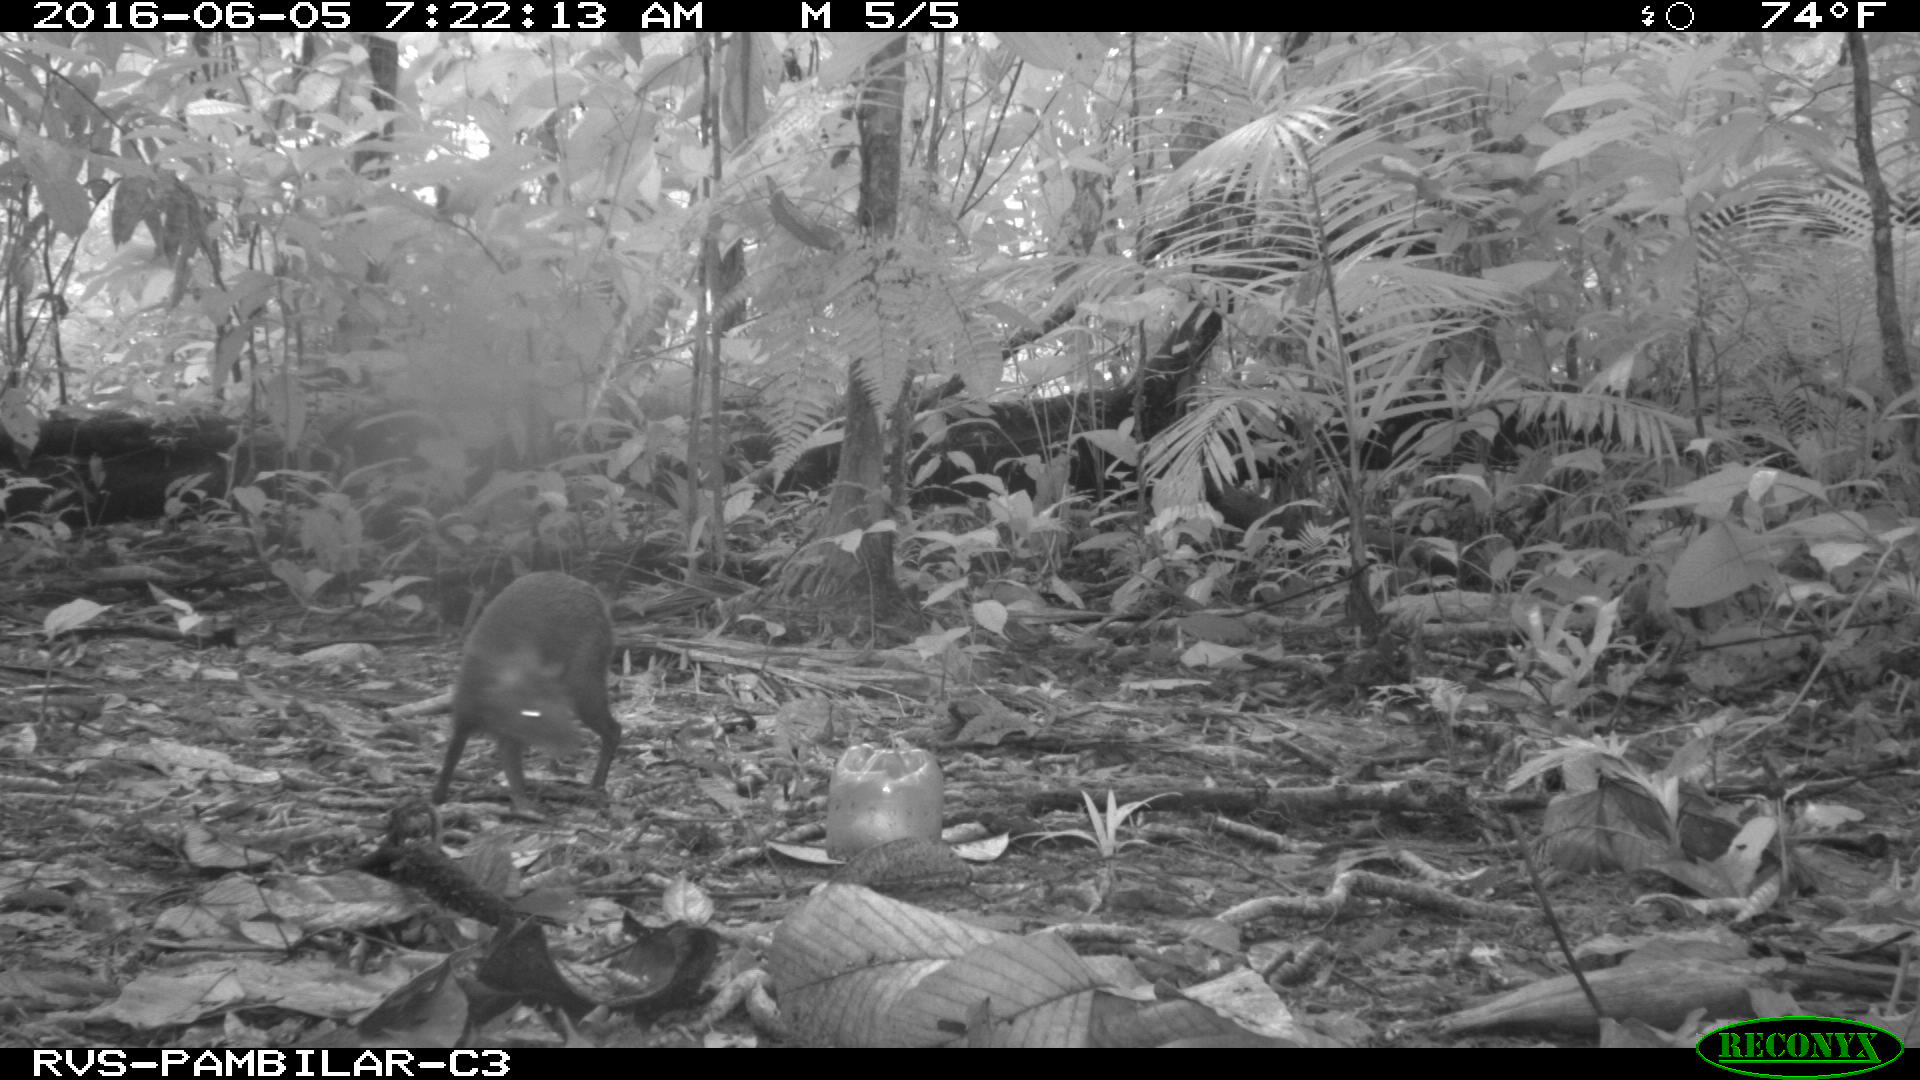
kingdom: Animalia
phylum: Chordata
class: Mammalia
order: Rodentia
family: Dasyproctidae
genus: Dasyprocta
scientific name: Dasyprocta punctata
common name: Central american agouti
